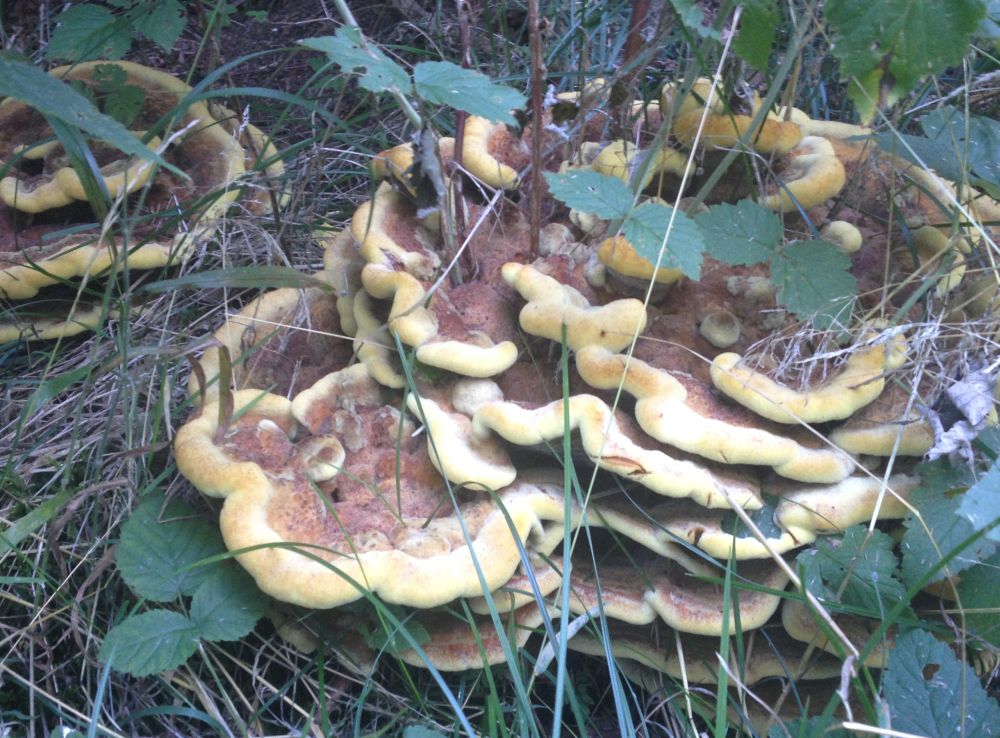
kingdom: Fungi
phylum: Basidiomycota
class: Agaricomycetes
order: Polyporales
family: Laetiporaceae
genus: Phaeolus
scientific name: Phaeolus schweinitzii
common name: brunporesvamp
